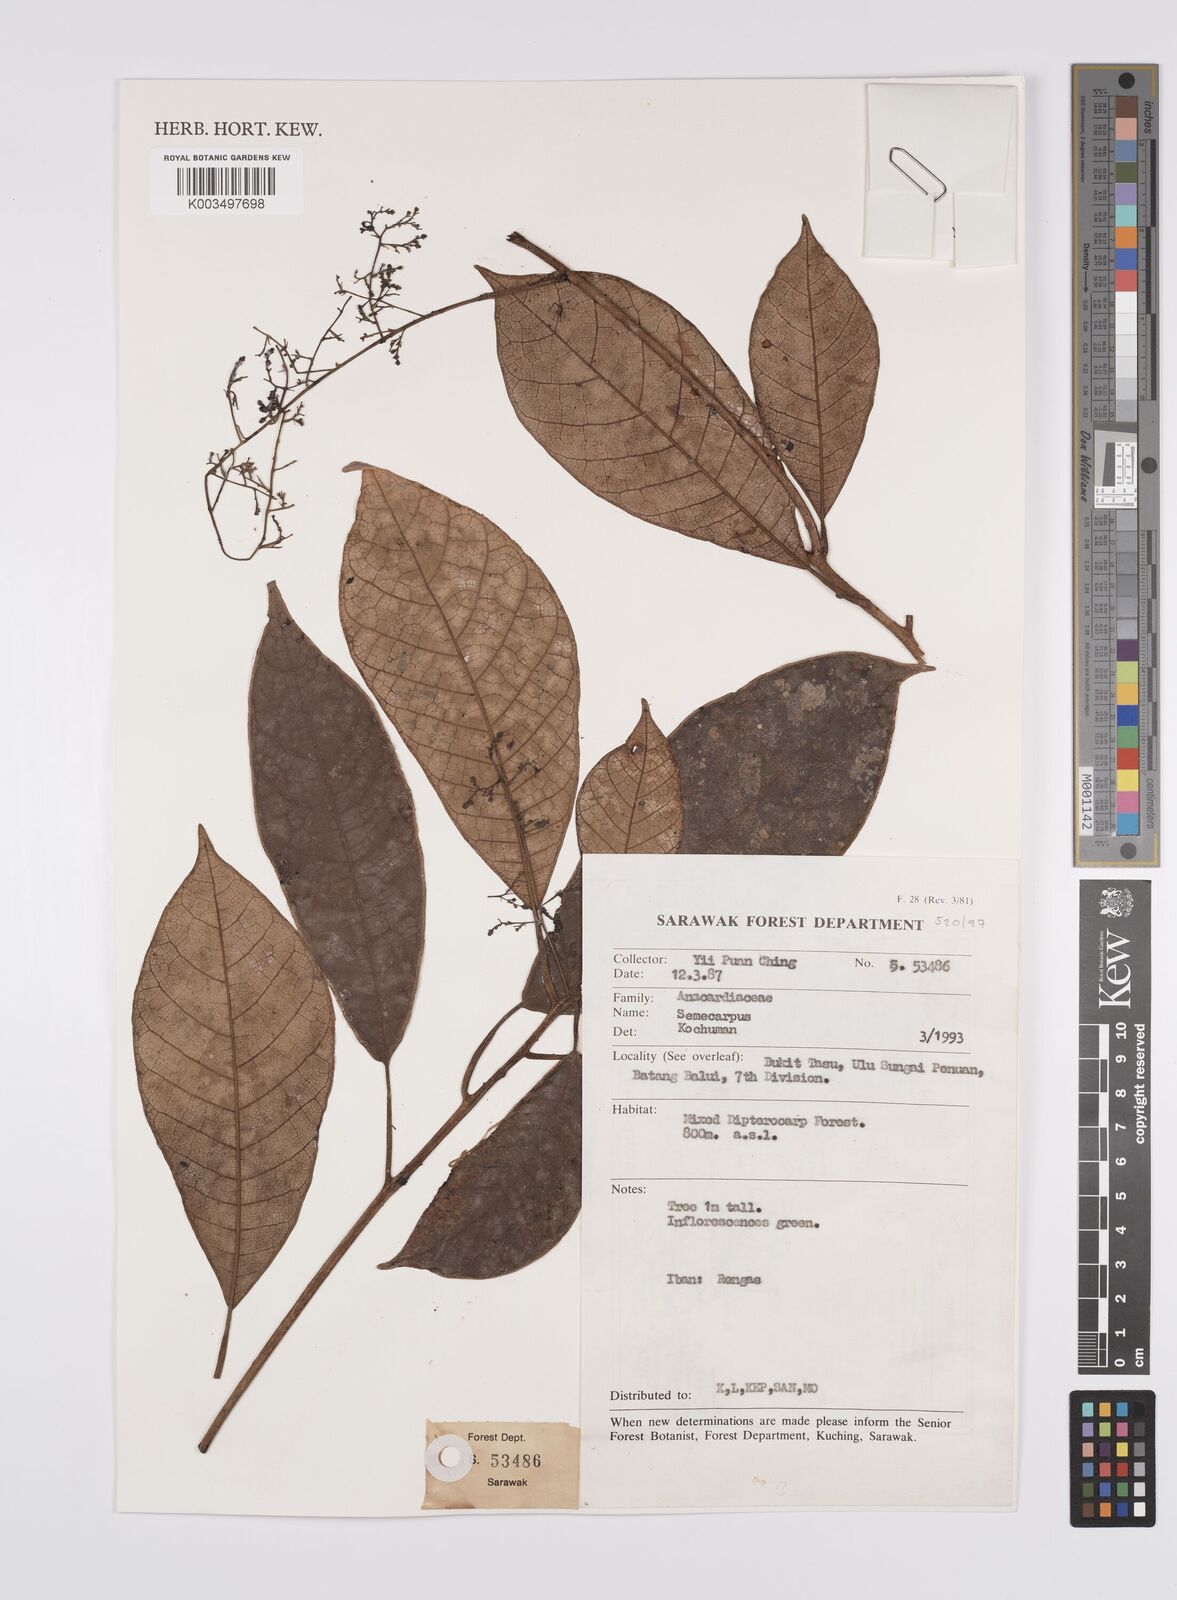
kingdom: Plantae
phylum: Tracheophyta
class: Magnoliopsida
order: Sapindales
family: Anacardiaceae
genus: Semecarpus
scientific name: Semecarpus
